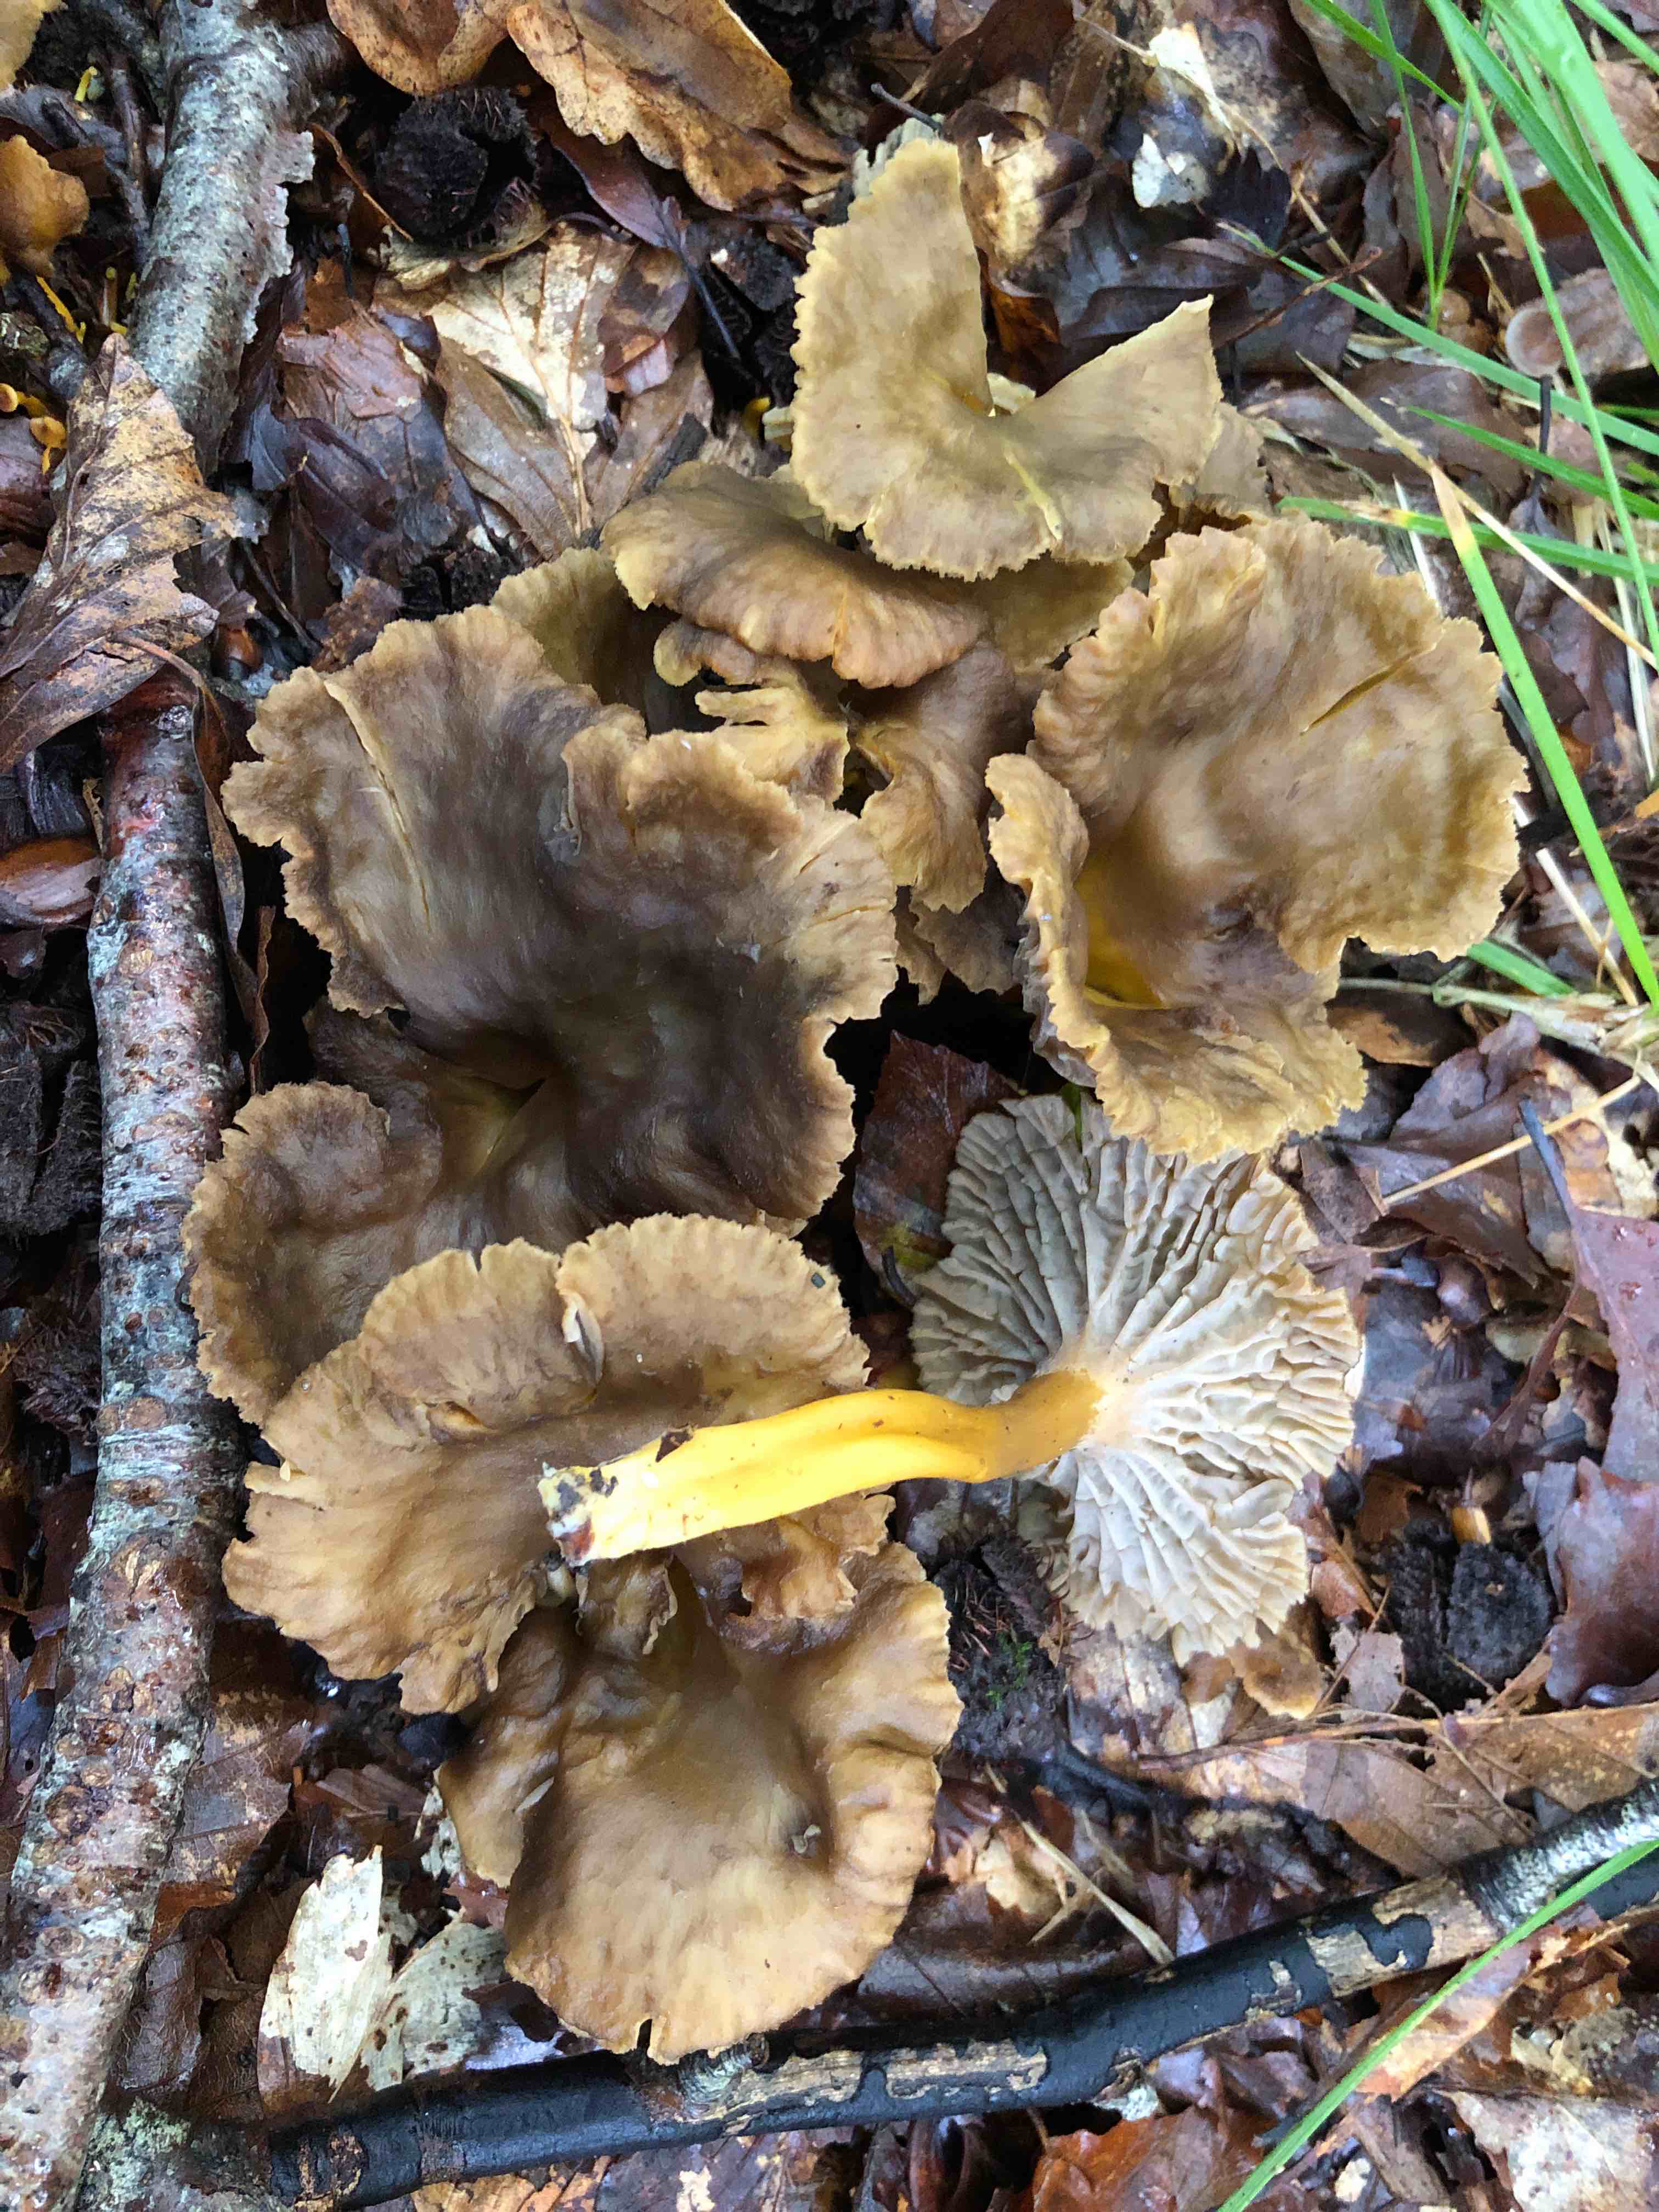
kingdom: Fungi
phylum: Basidiomycota
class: Agaricomycetes
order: Cantharellales
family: Hydnaceae
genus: Craterellus
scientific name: Craterellus tubaeformis
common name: tragt-kantarel
